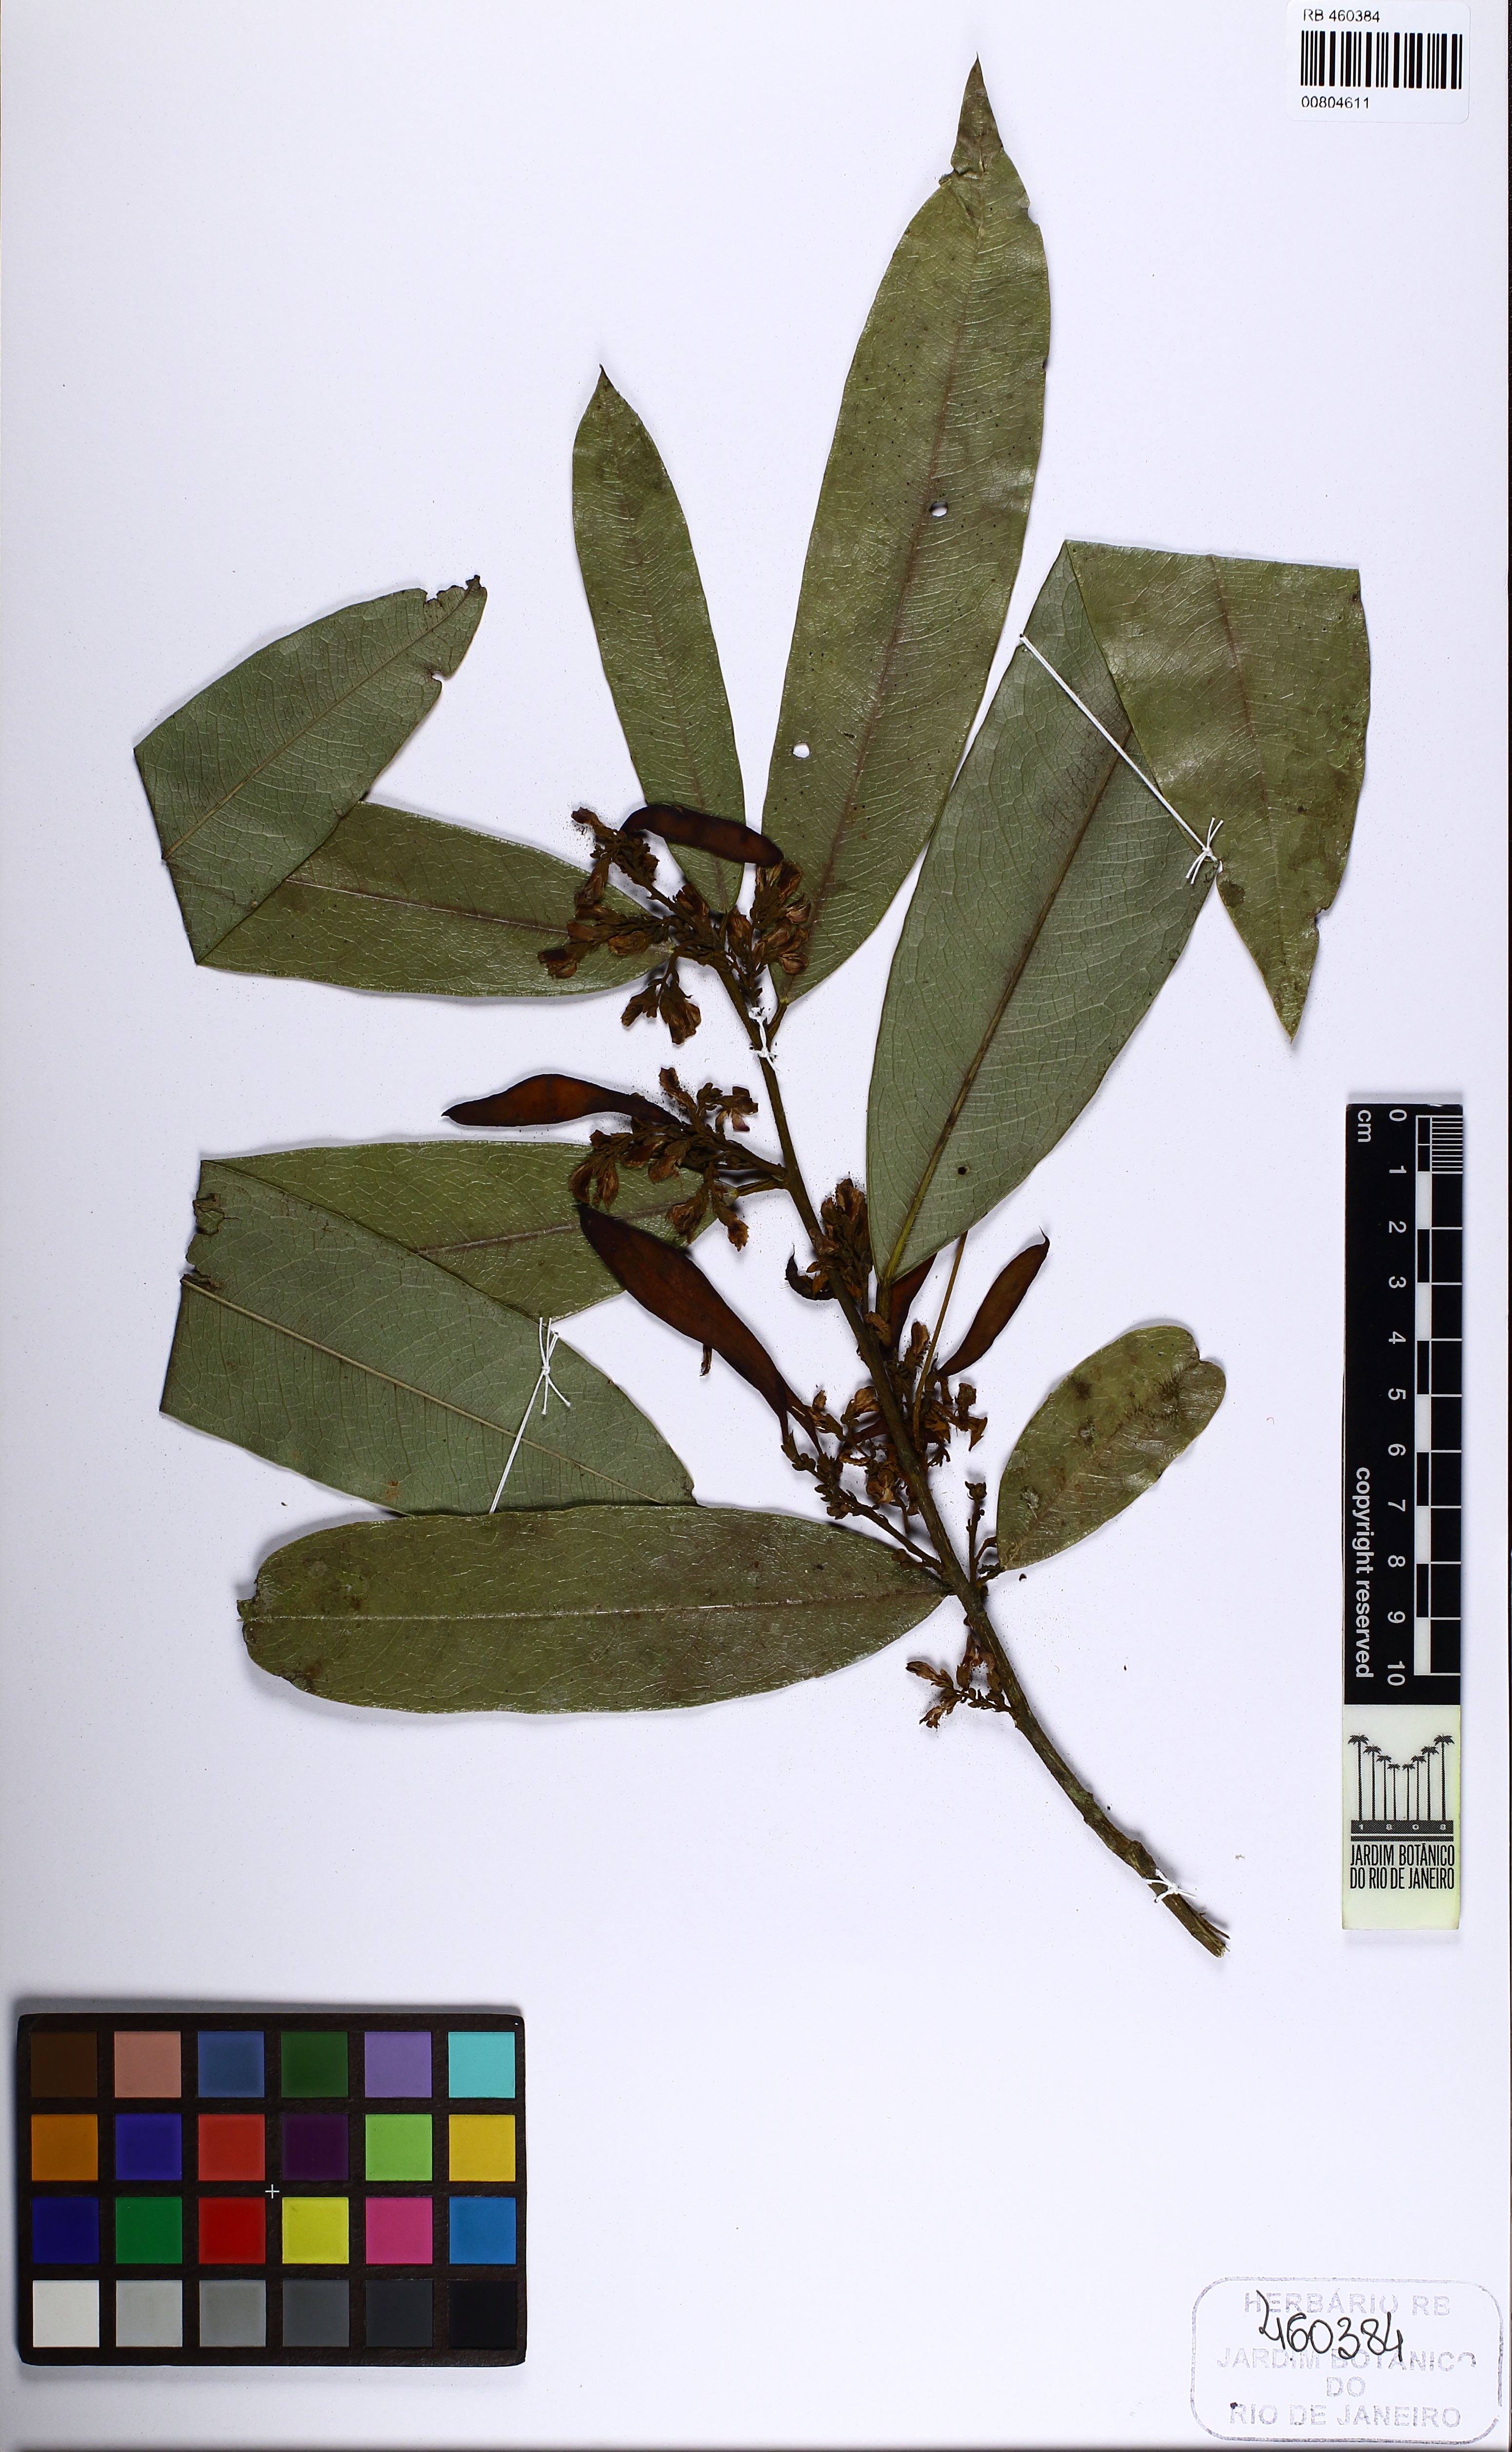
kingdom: Plantae
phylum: Tracheophyta
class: Magnoliopsida
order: Fabales
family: Fabaceae
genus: Poecilanthe
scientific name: Poecilanthe fluminensis
